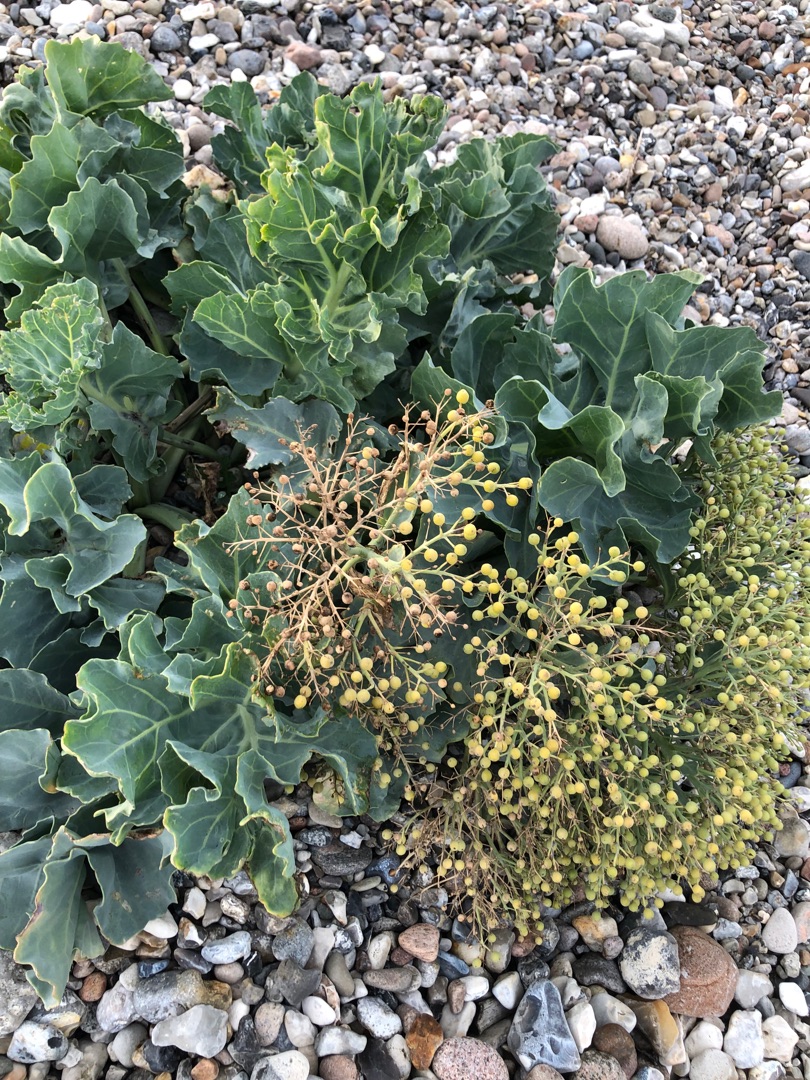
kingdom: Plantae
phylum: Tracheophyta
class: Magnoliopsida
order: Brassicales
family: Brassicaceae
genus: Crambe
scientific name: Crambe maritima
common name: Strandkål
